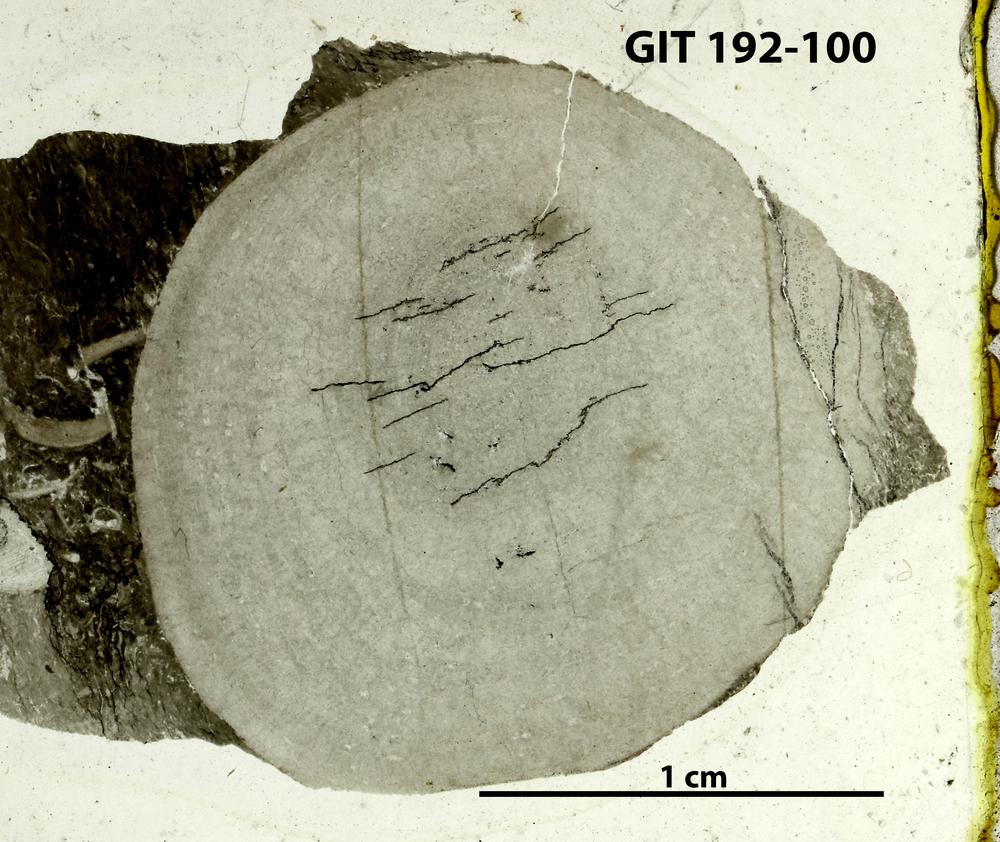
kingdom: Animalia
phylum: Porifera
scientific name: Porifera
